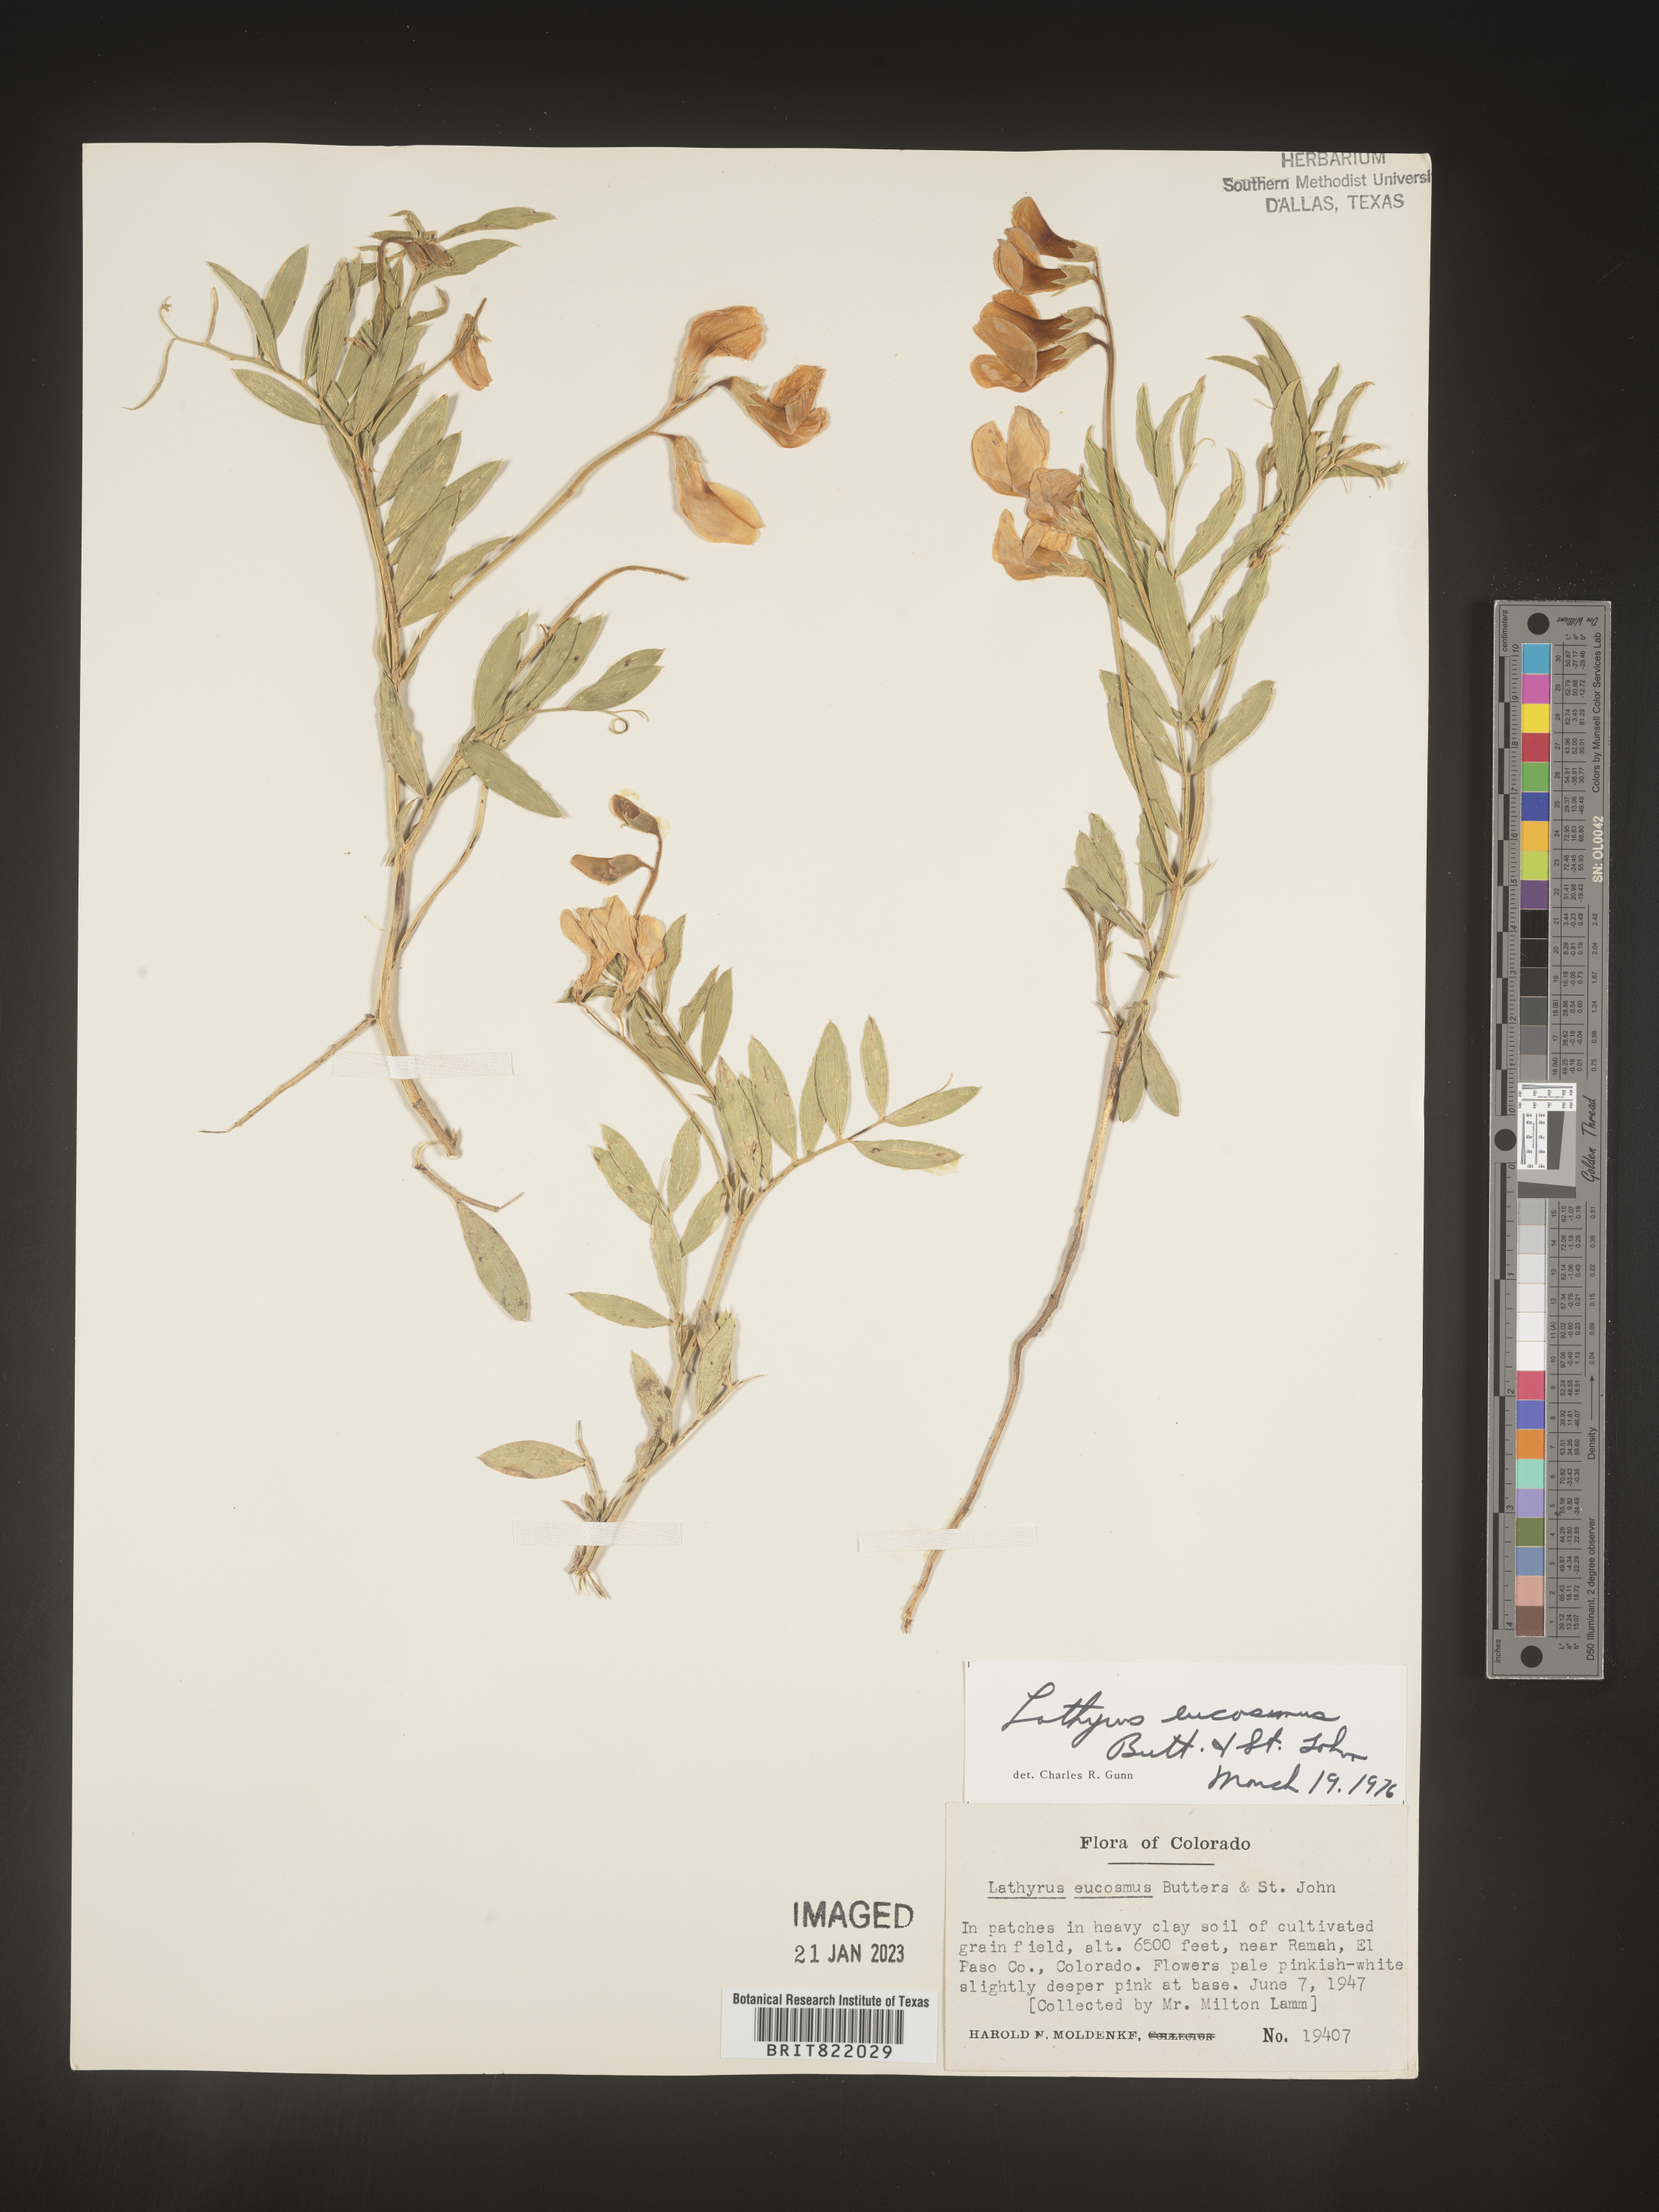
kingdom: Plantae
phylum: Tracheophyta
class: Magnoliopsida
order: Fabales
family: Fabaceae
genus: Lathyrus
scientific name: Lathyrus
